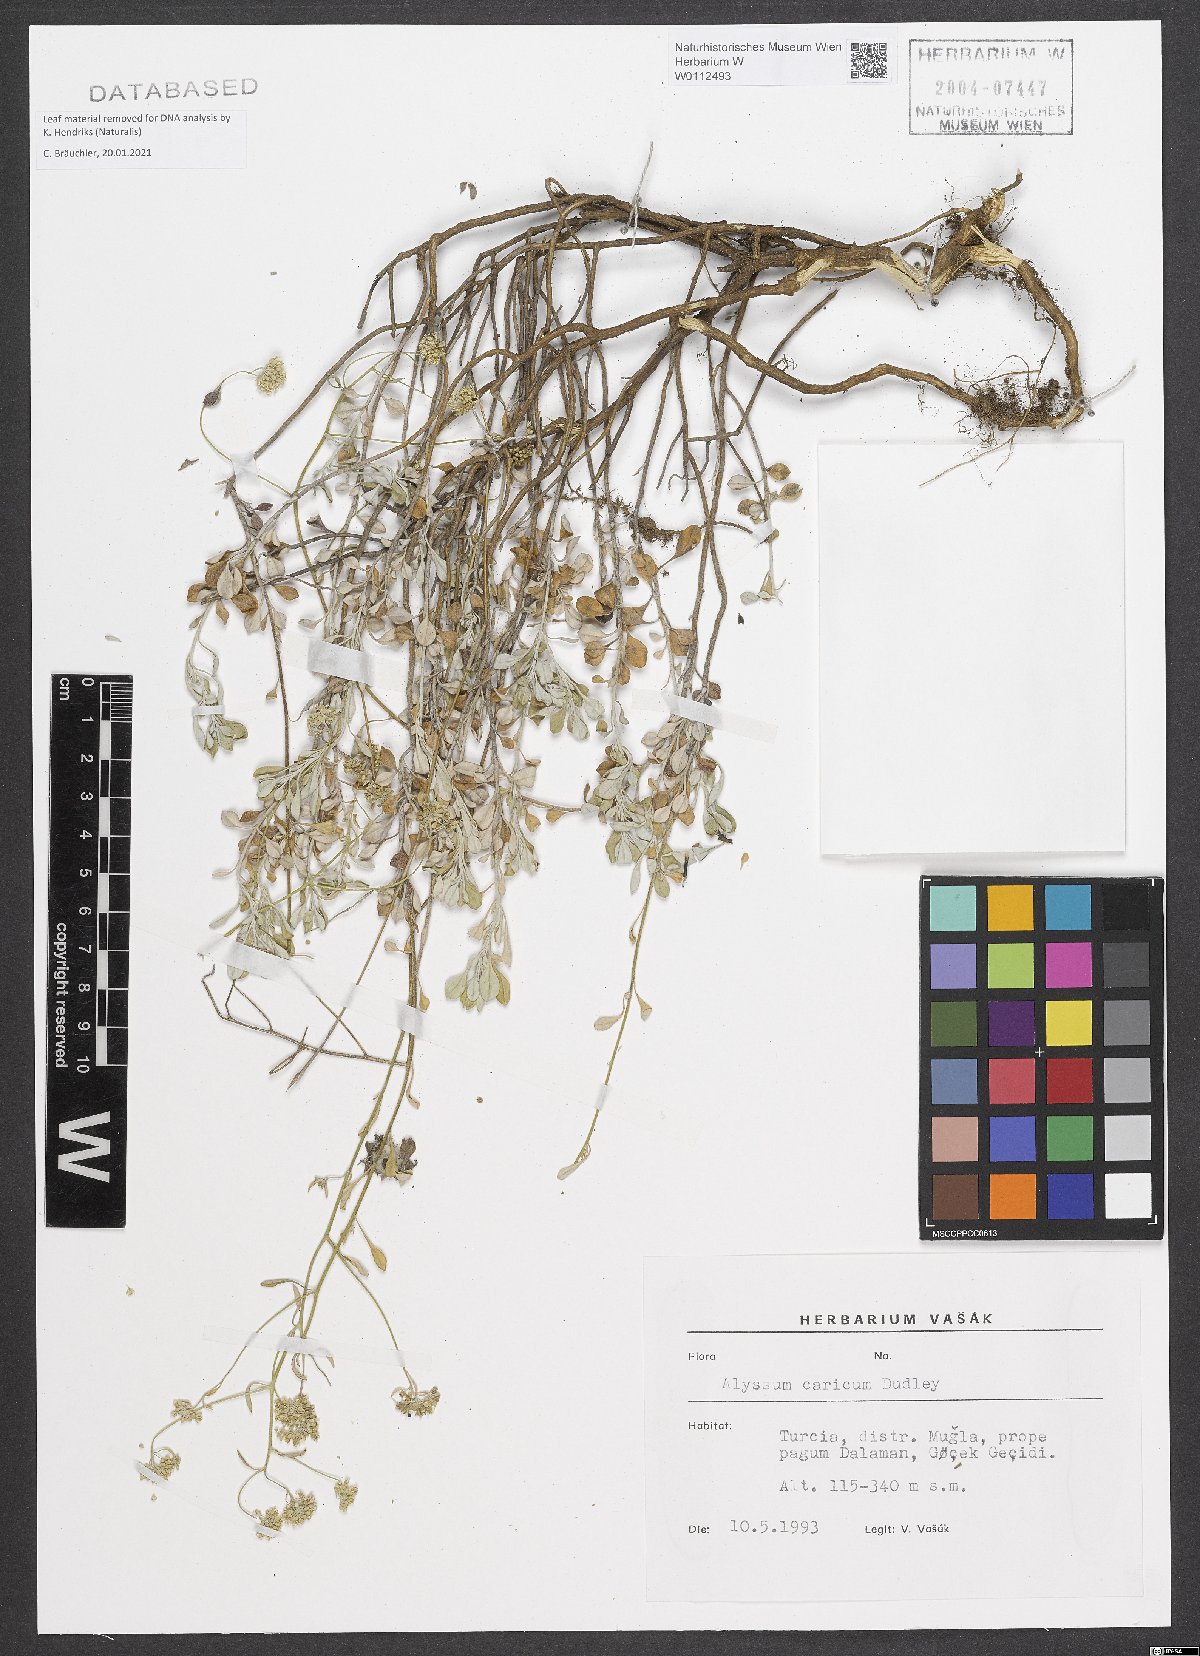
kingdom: Plantae
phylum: Tracheophyta
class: Magnoliopsida
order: Brassicales
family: Brassicaceae
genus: Odontarrhena
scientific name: Odontarrhena carica
